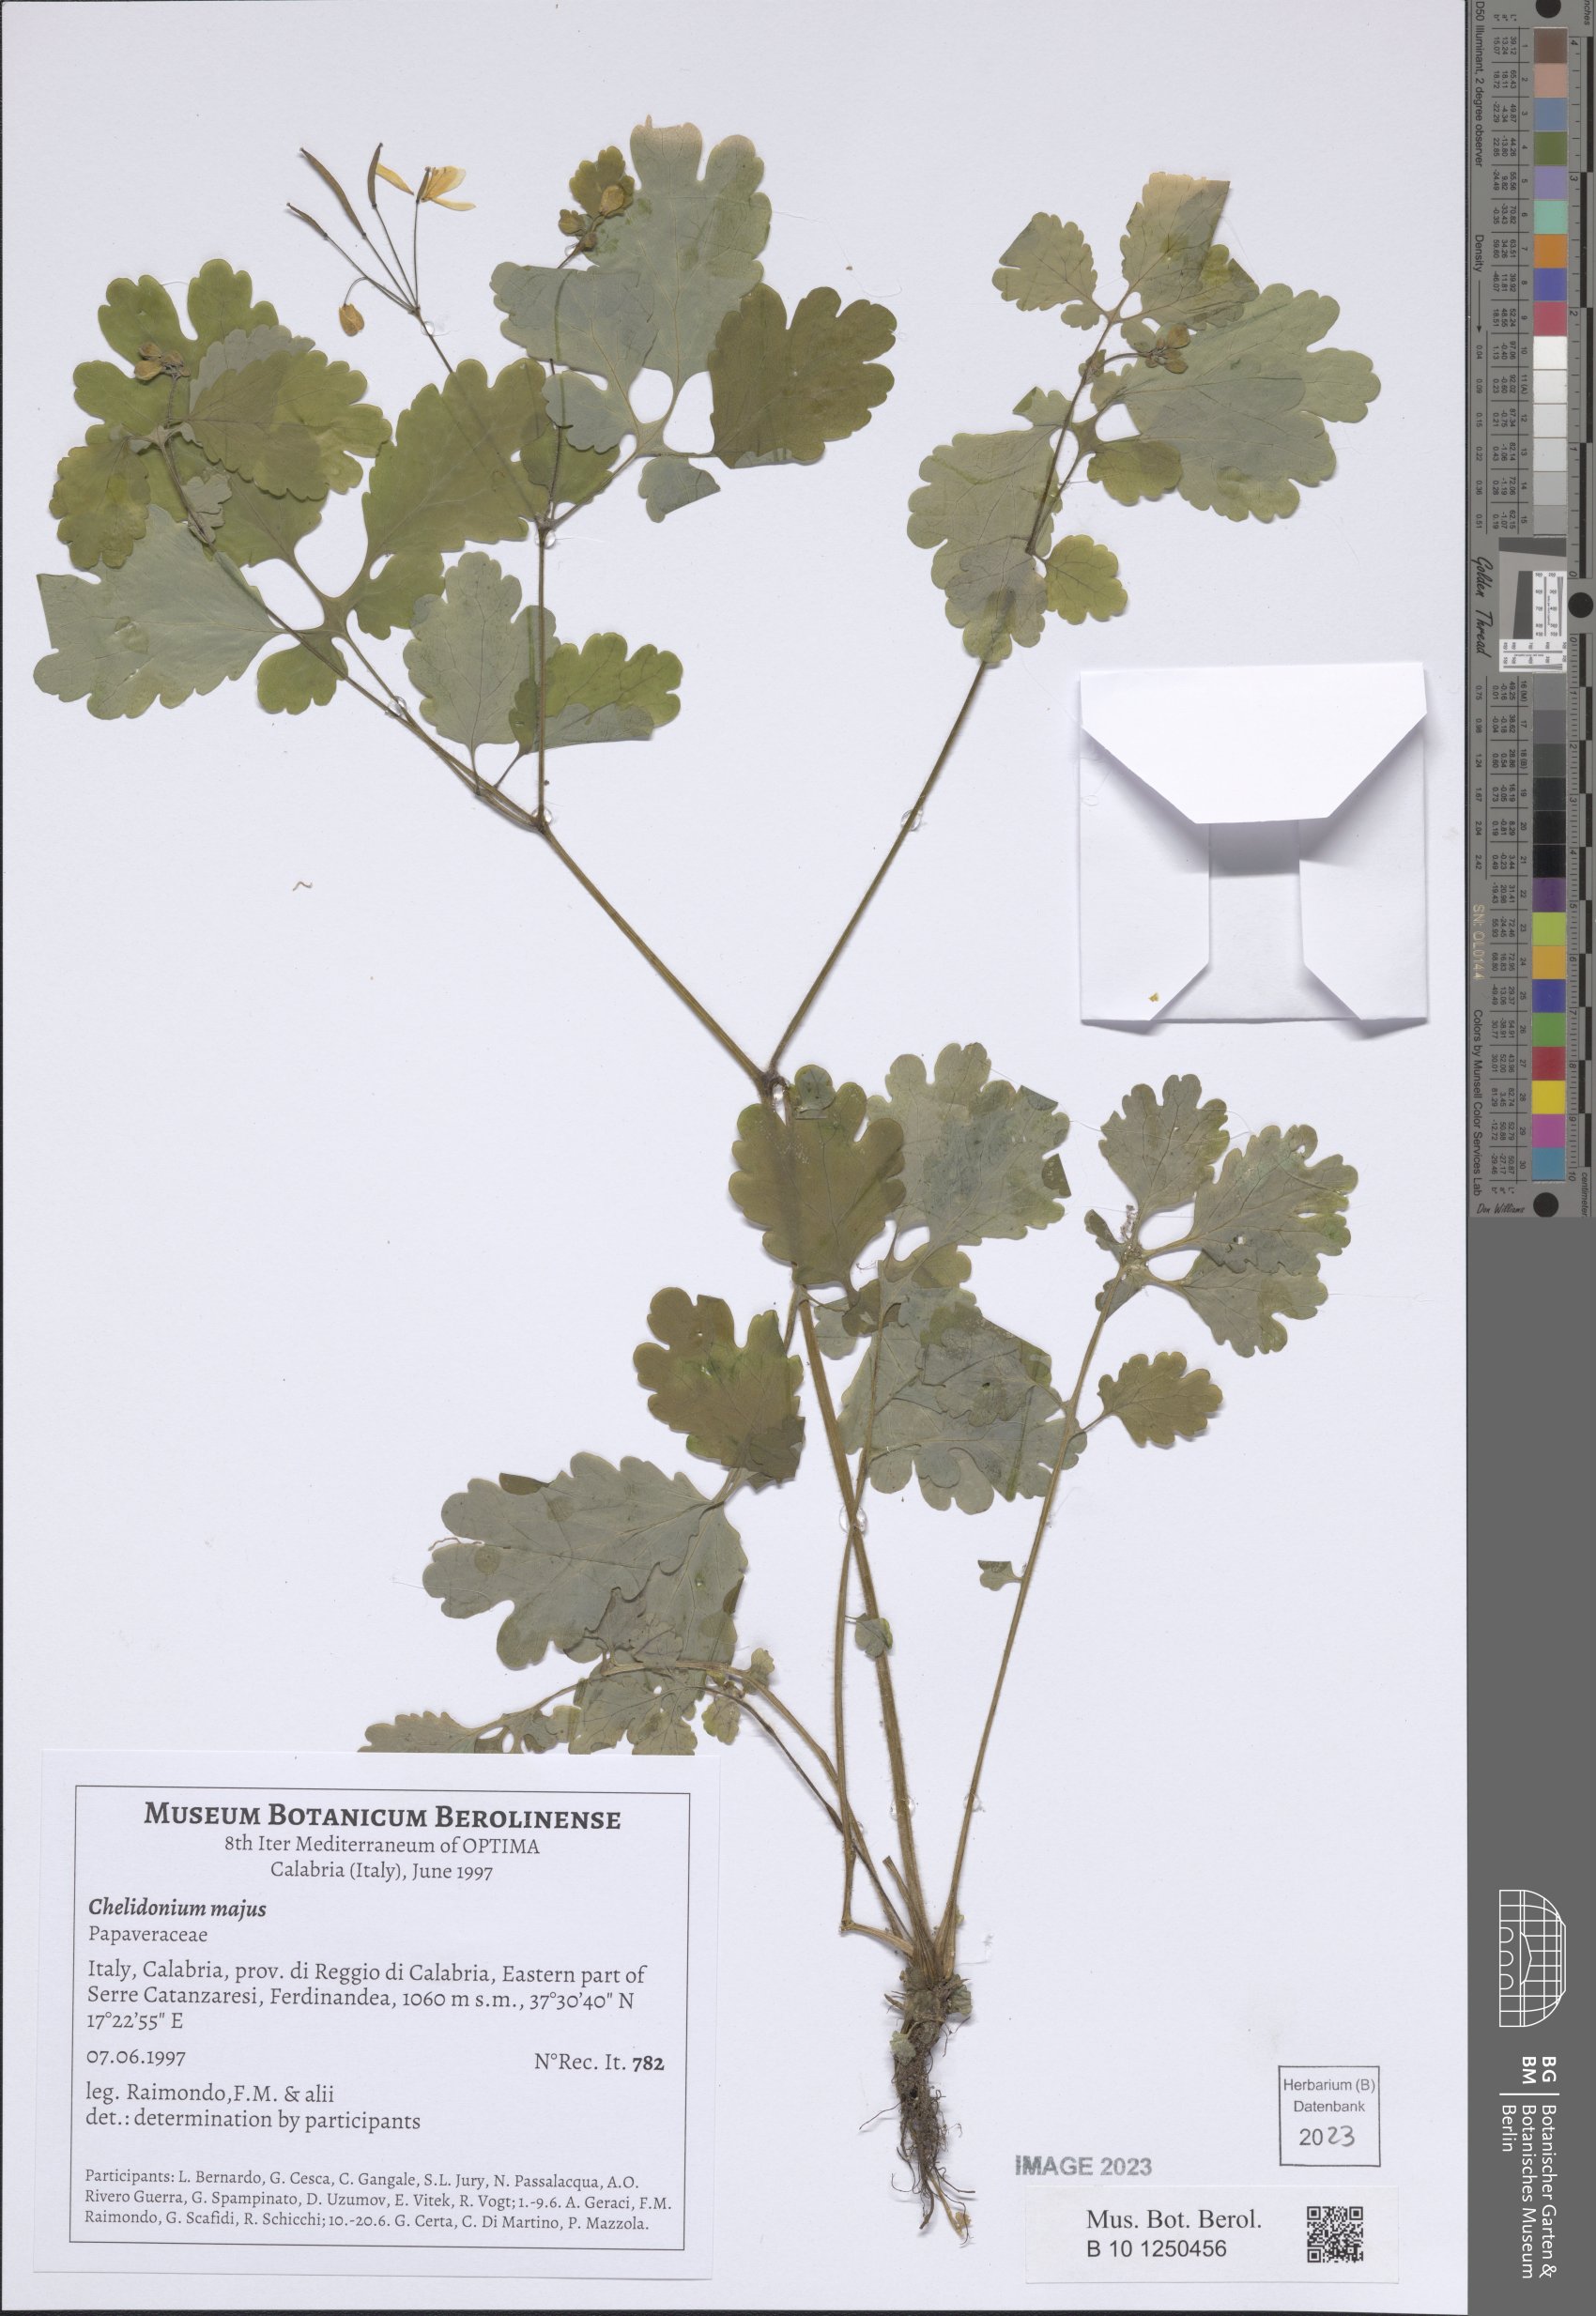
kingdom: Plantae
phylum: Tracheophyta
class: Magnoliopsida
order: Ranunculales
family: Papaveraceae
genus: Chelidonium
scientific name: Chelidonium majus
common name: Greater celandine
